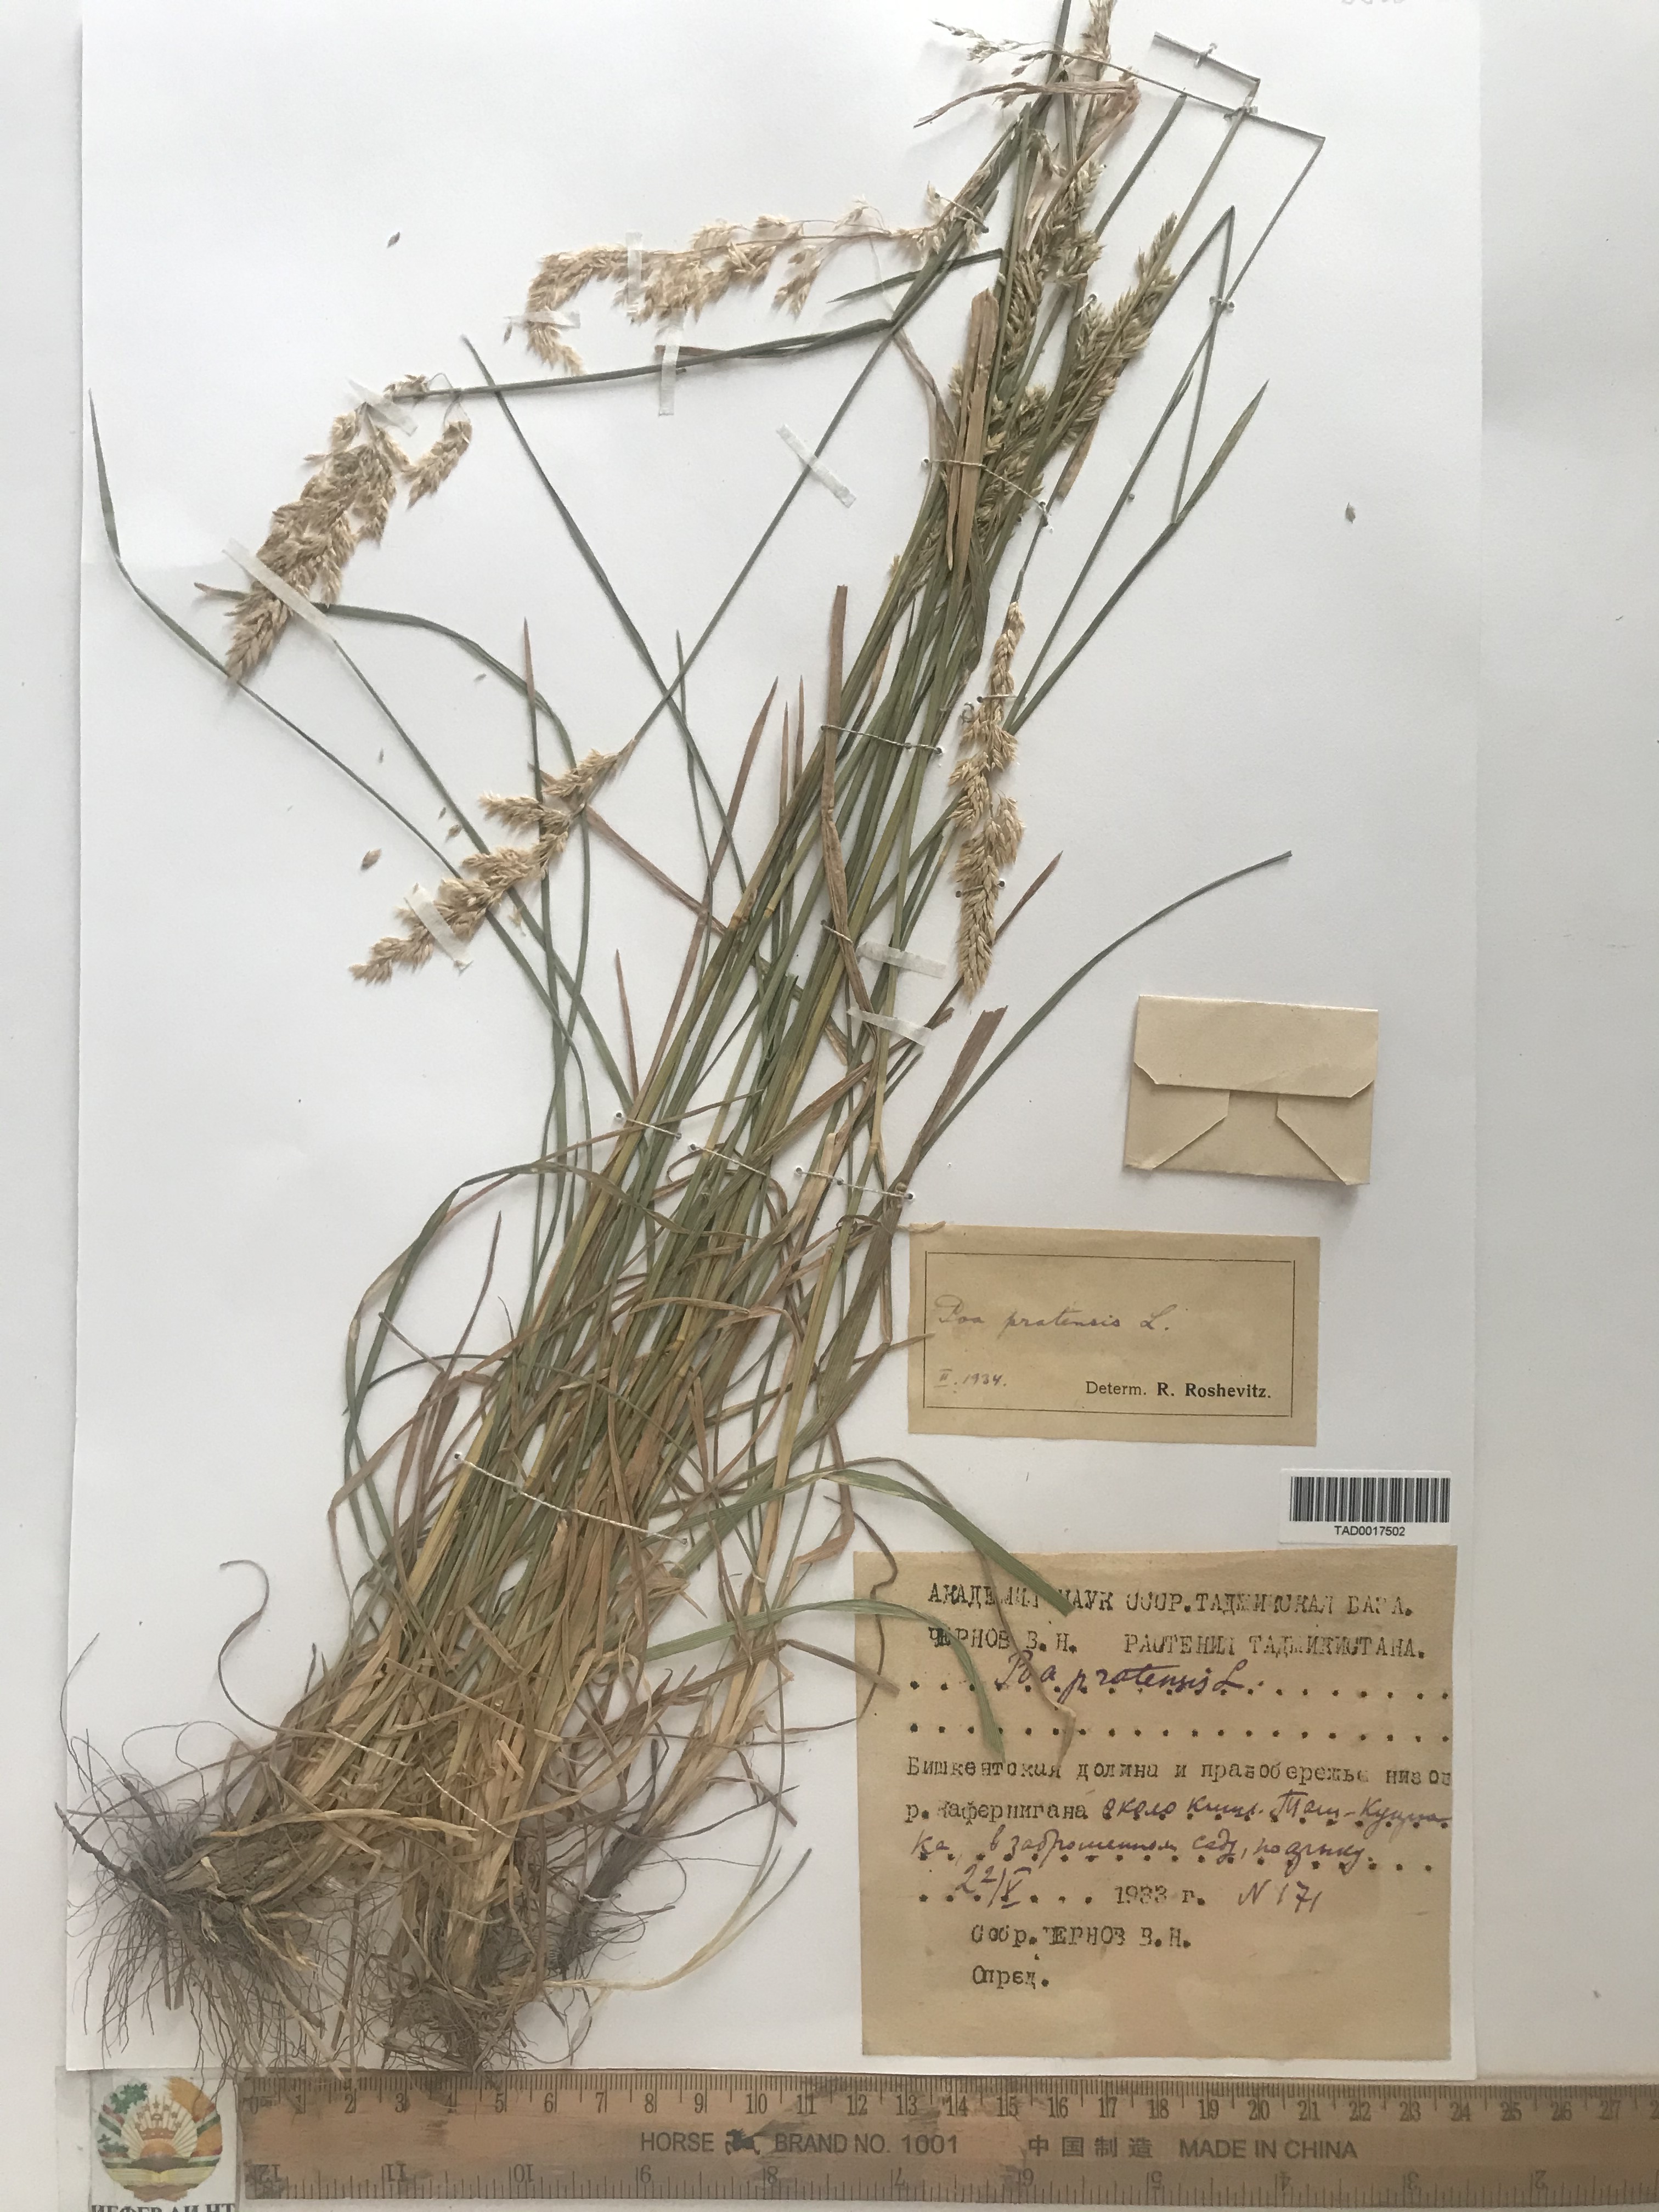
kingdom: Plantae
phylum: Tracheophyta
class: Liliopsida
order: Poales
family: Poaceae
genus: Poa
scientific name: Poa pratensis
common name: Kentucky bluegrass
